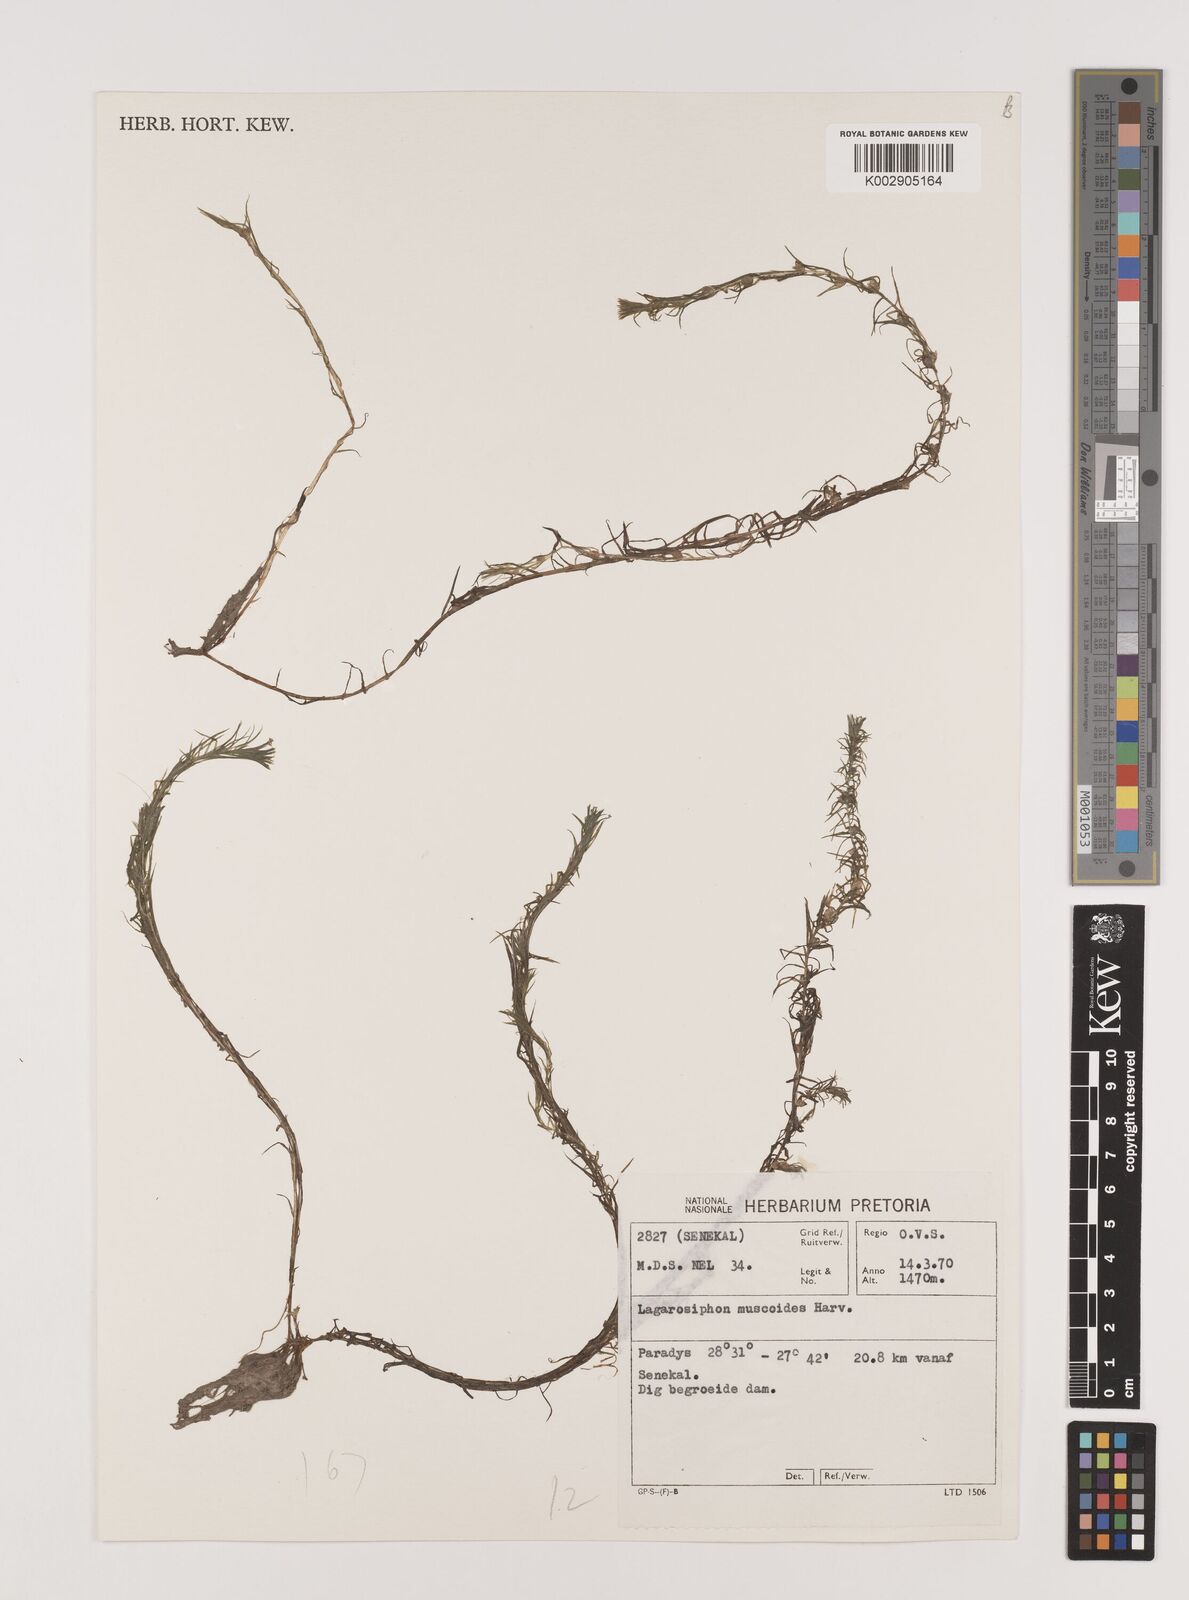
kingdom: Plantae
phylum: Tracheophyta
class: Liliopsida
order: Alismatales
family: Hydrocharitaceae
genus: Lagarosiphon
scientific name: Lagarosiphon muscoides
